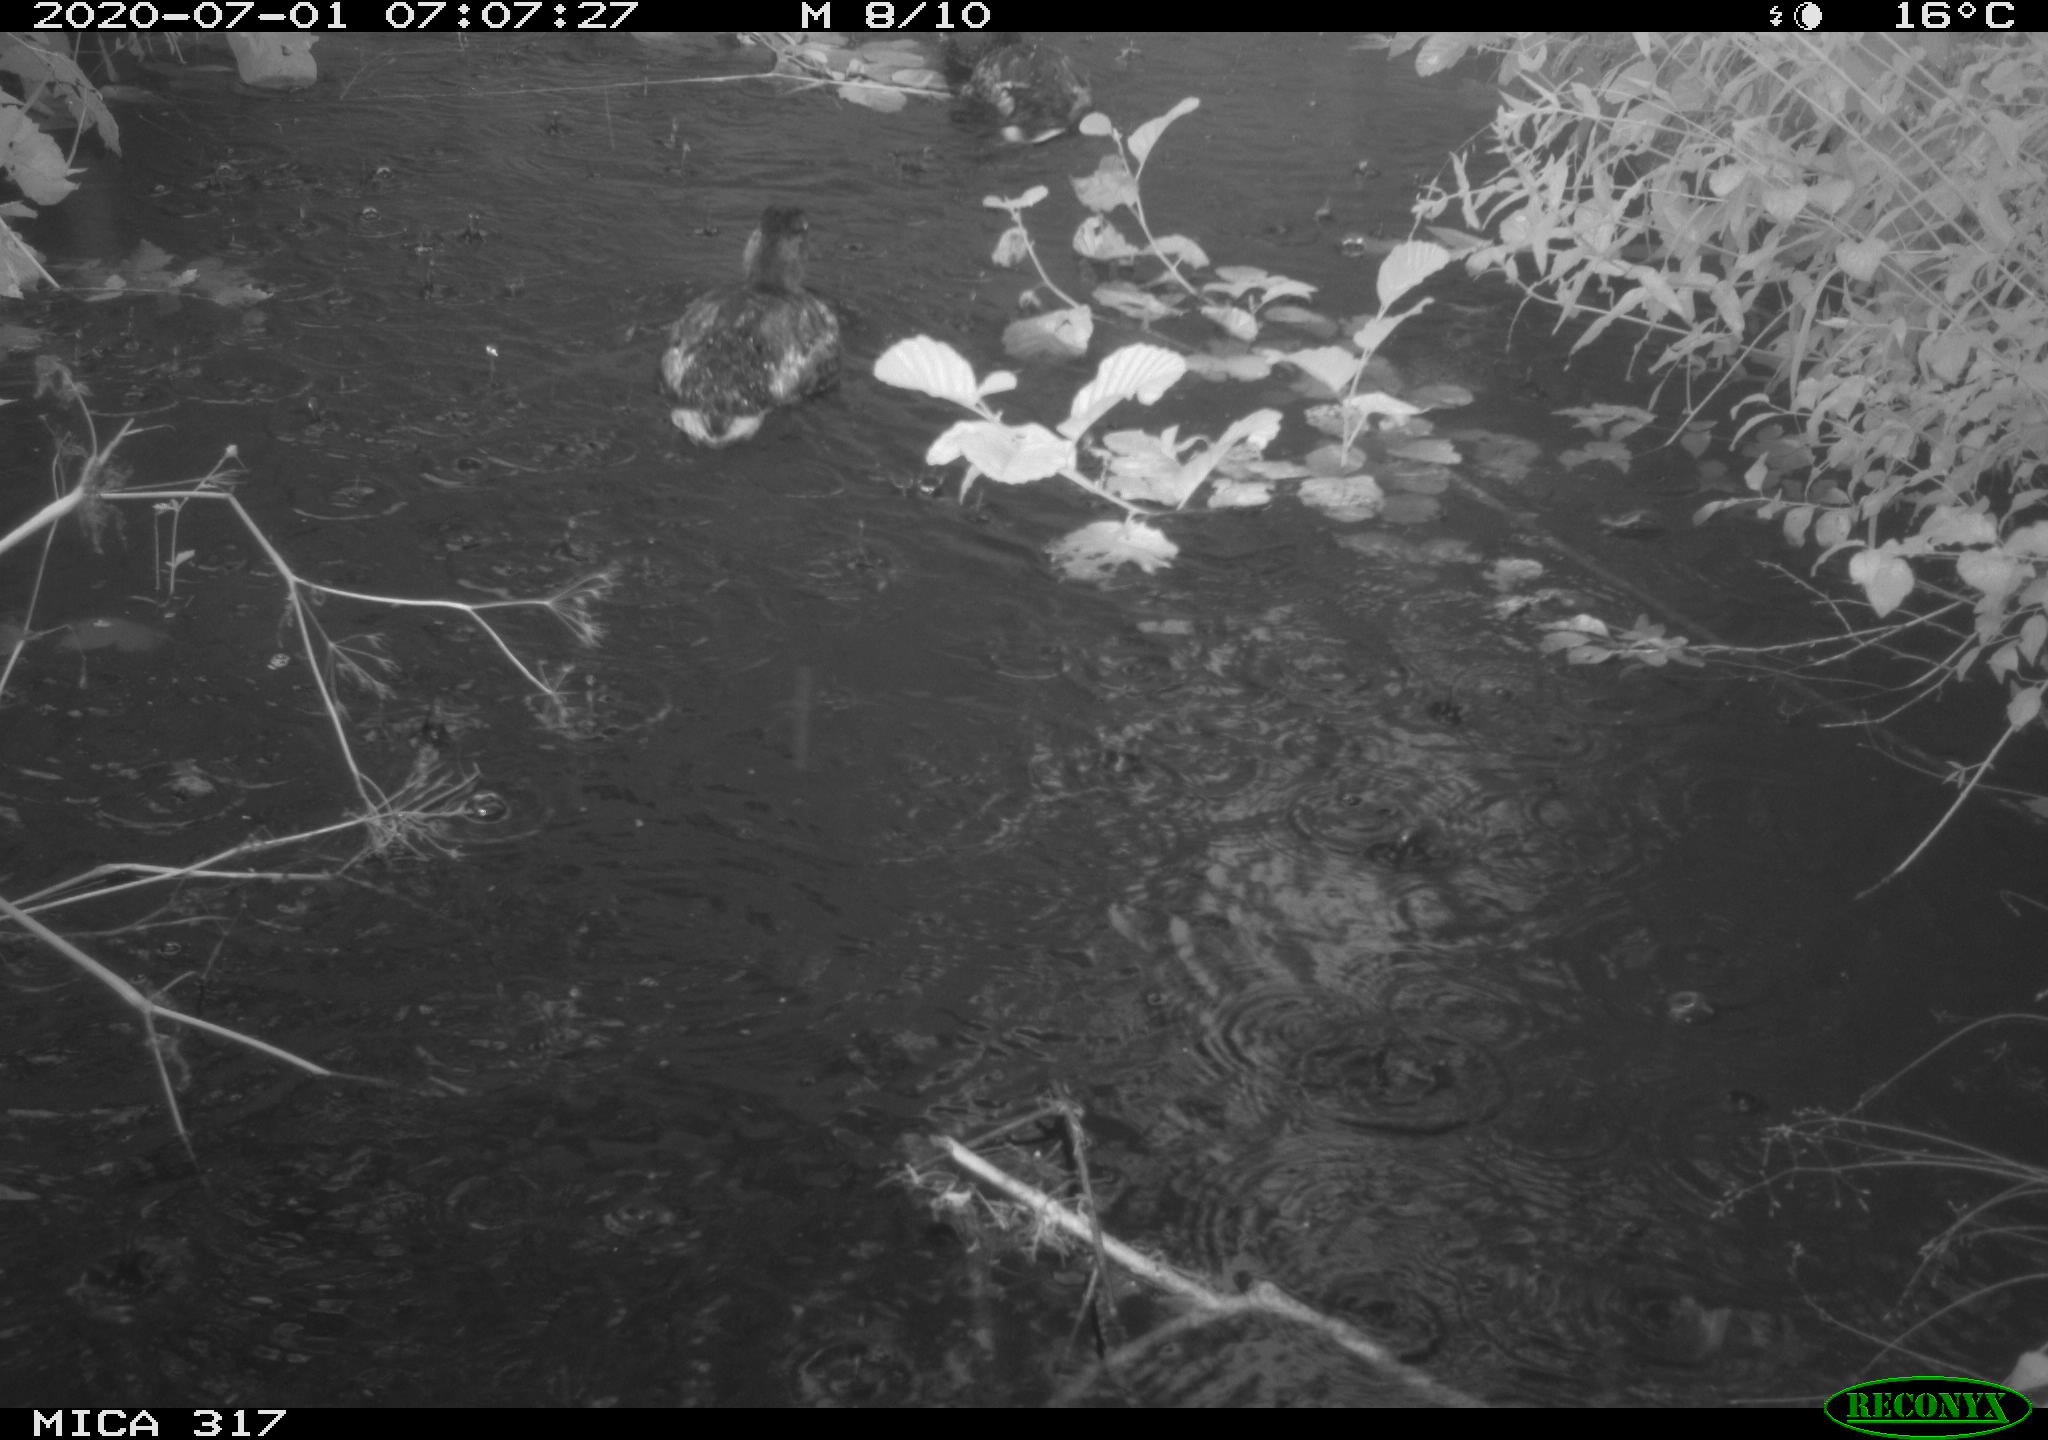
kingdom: Animalia
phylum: Chordata
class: Aves
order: Anseriformes
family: Anatidae
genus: Anas
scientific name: Anas platyrhynchos
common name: Mallard
